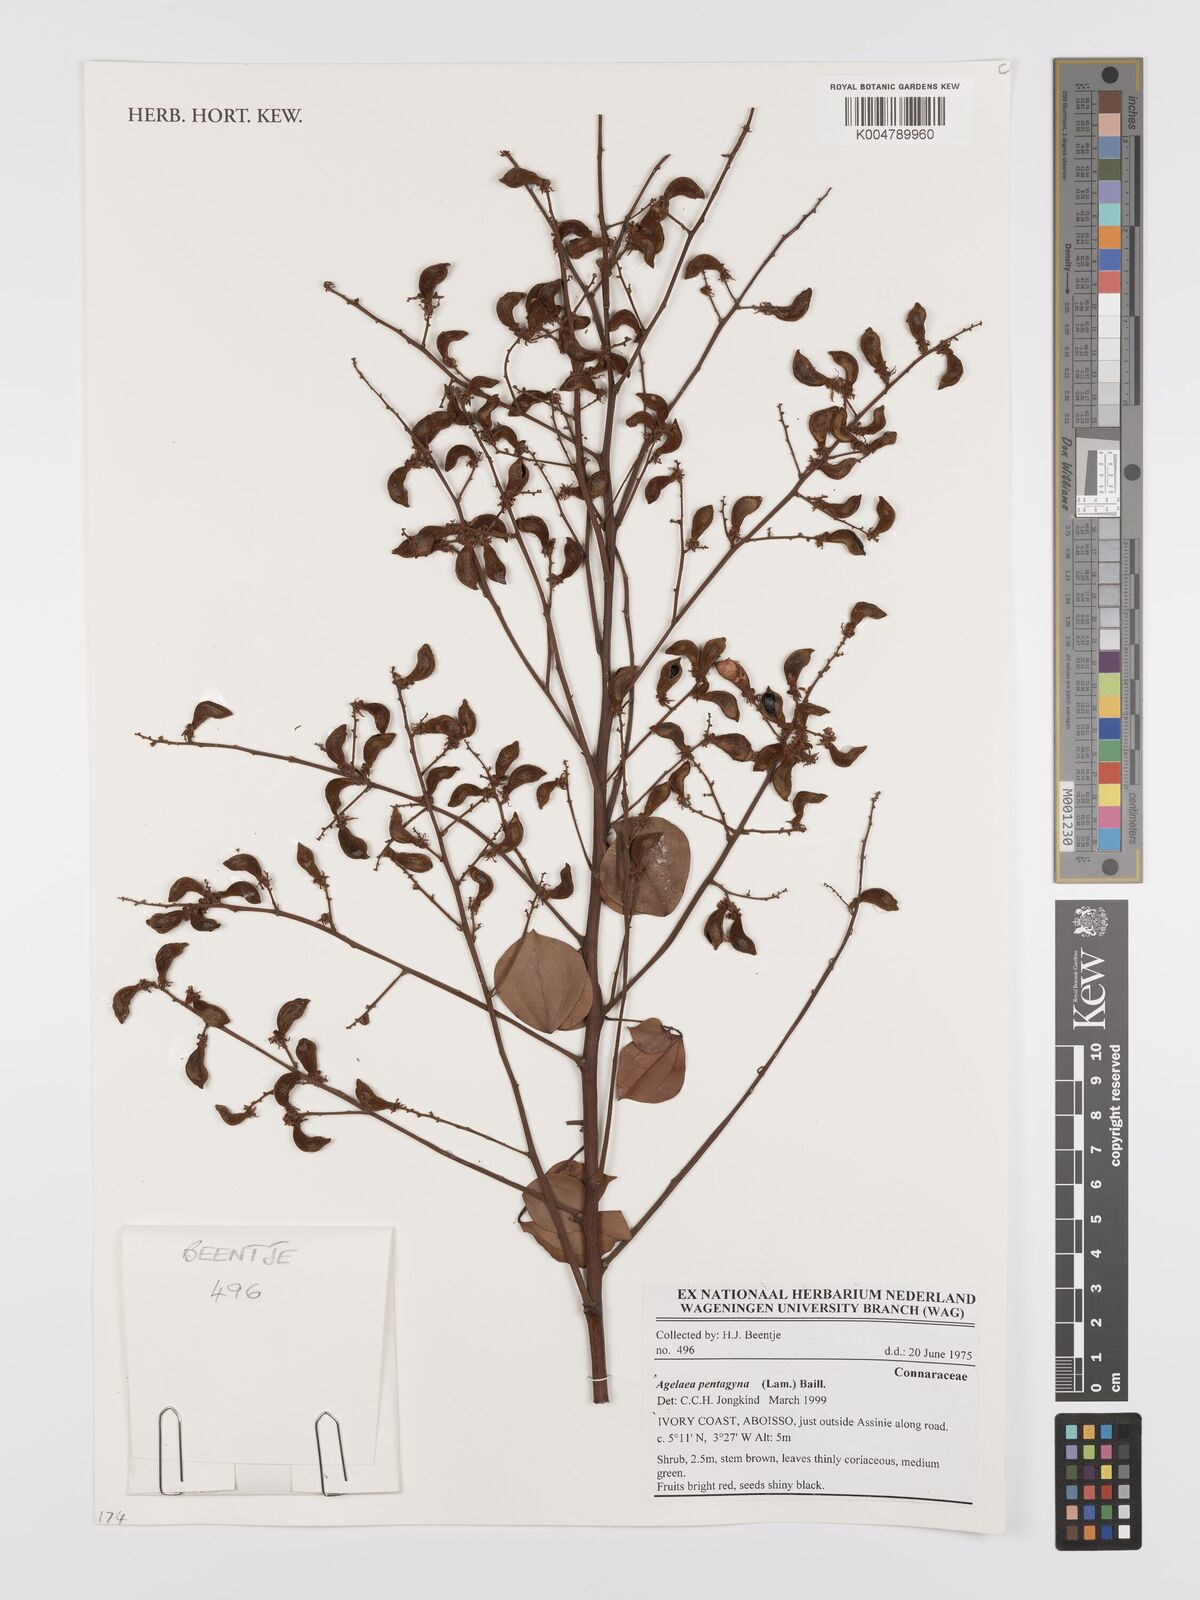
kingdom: Plantae
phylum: Tracheophyta
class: Magnoliopsida
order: Oxalidales
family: Connaraceae
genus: Agelaea
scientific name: Agelaea pentagyna
